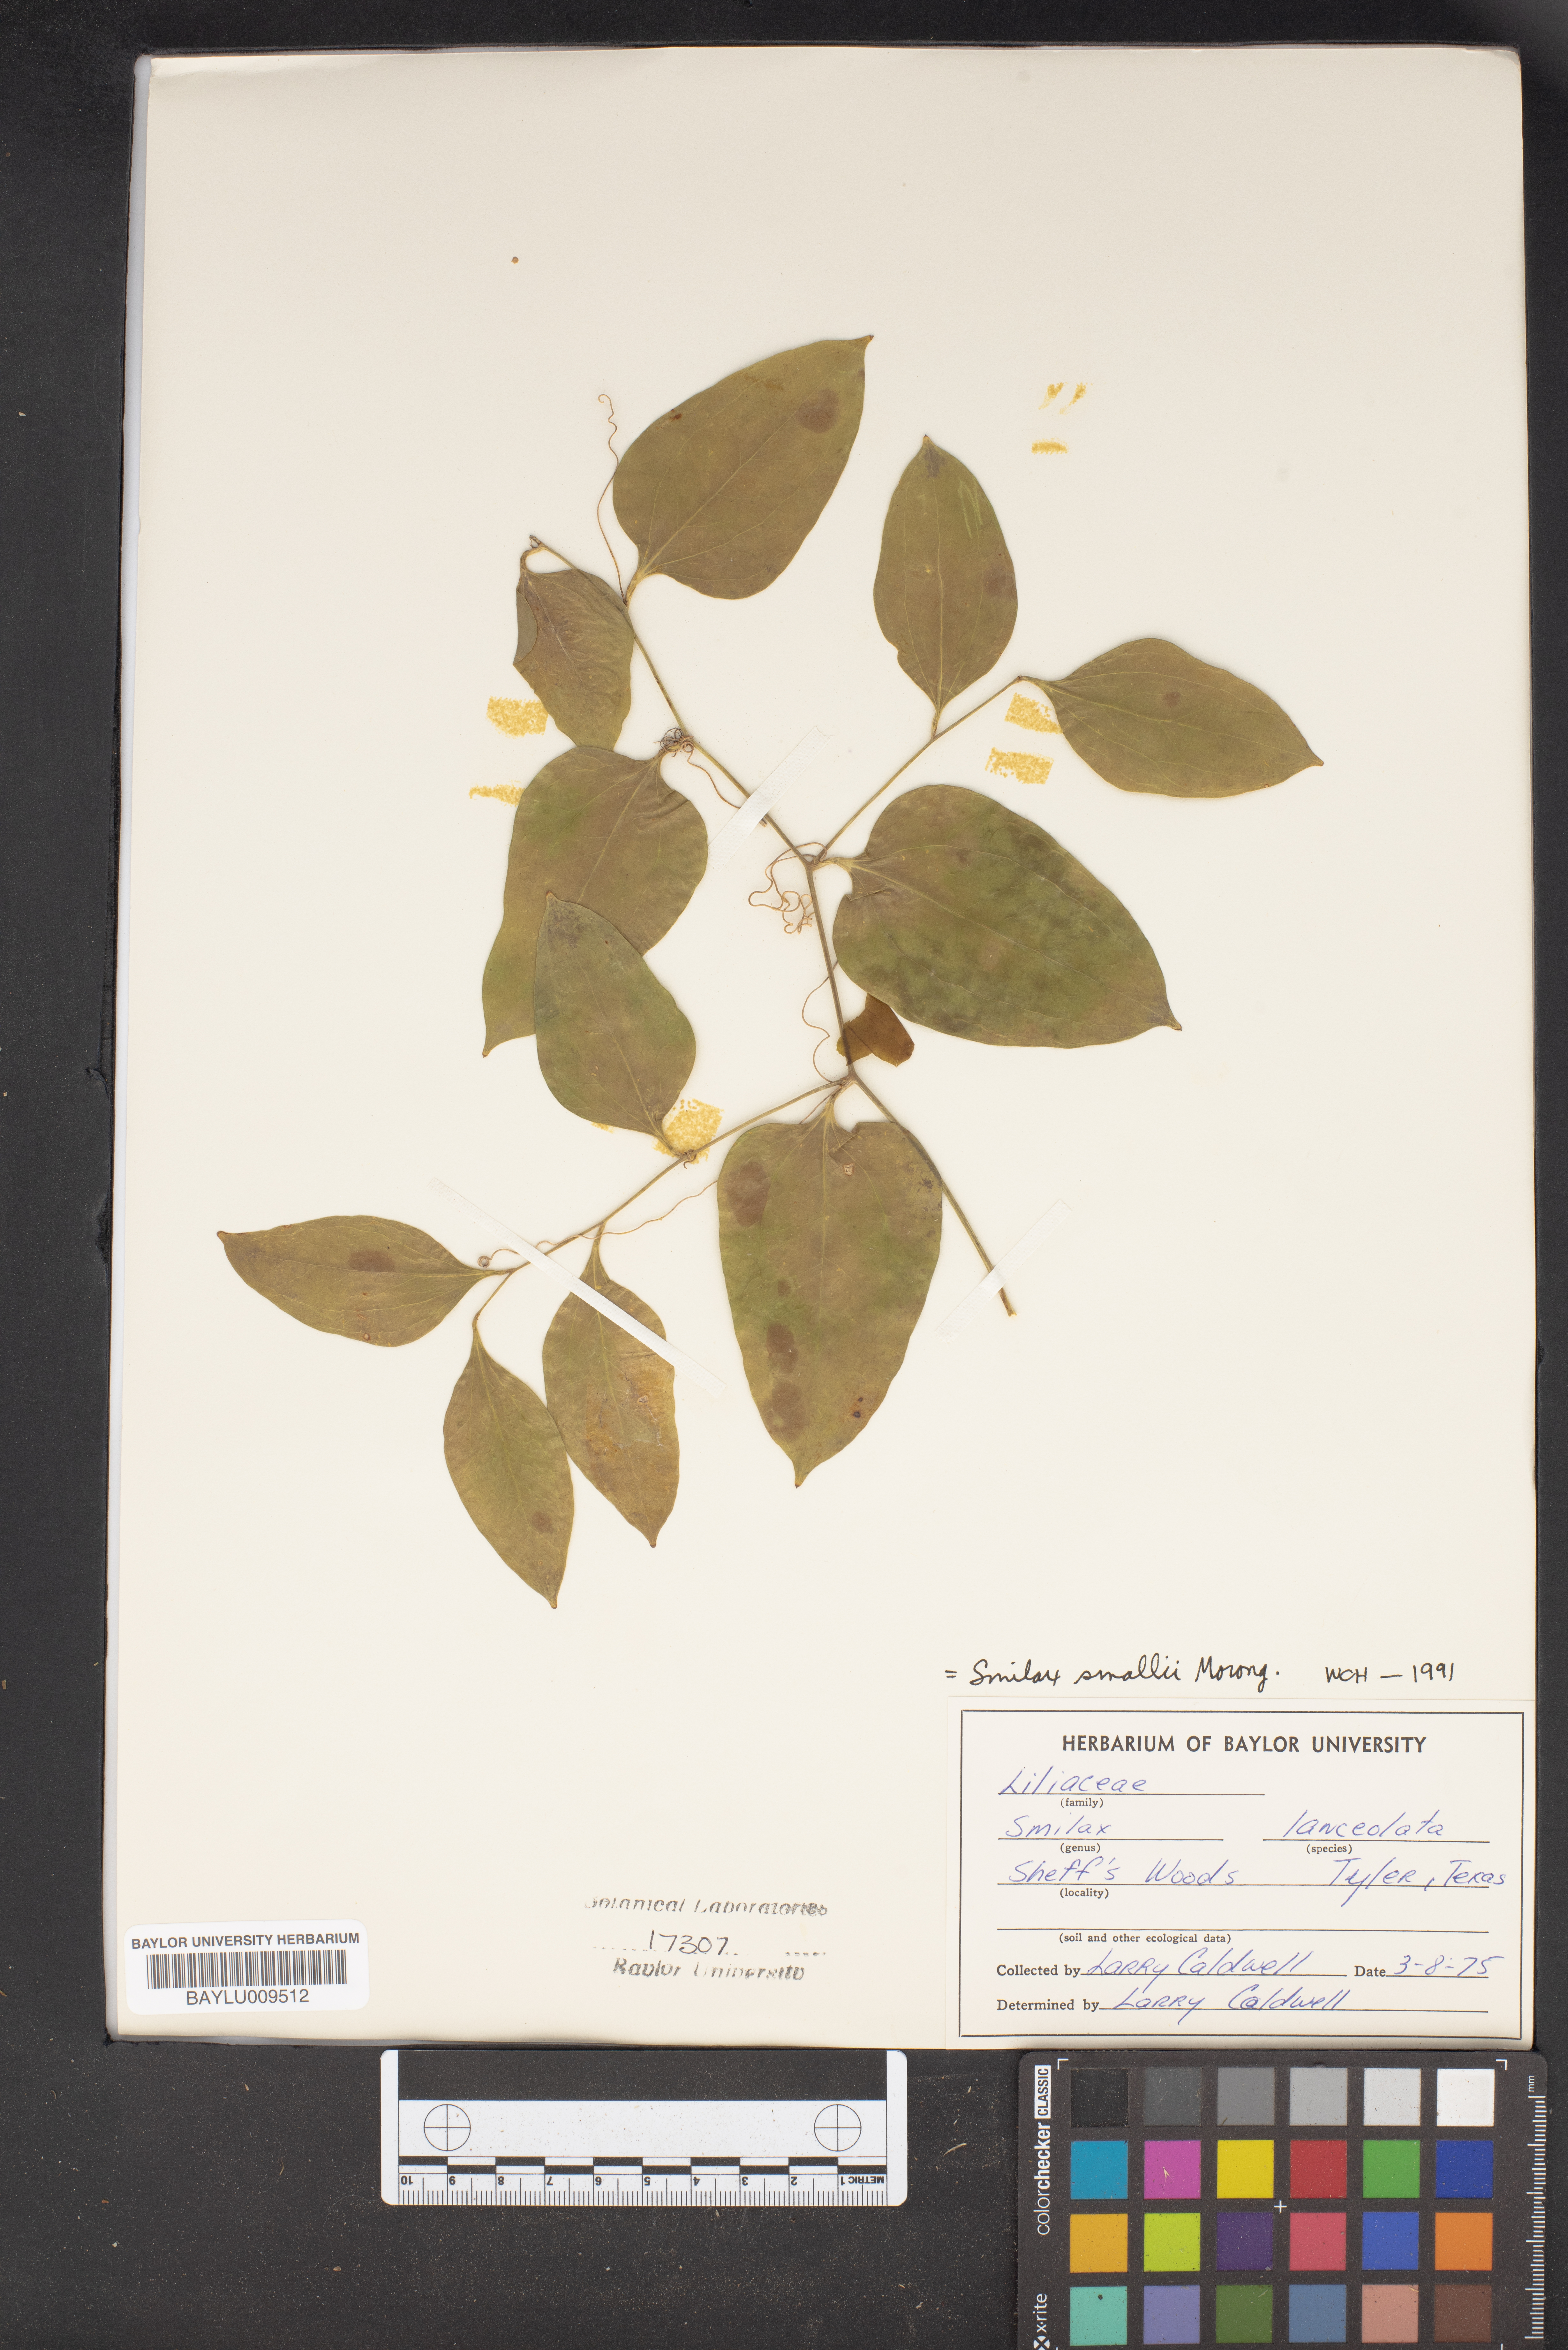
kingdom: Plantae
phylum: Tracheophyta
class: Liliopsida
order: Liliales
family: Smilacaceae
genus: Smilax
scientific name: Smilax laurifolia
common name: Bamboovine
